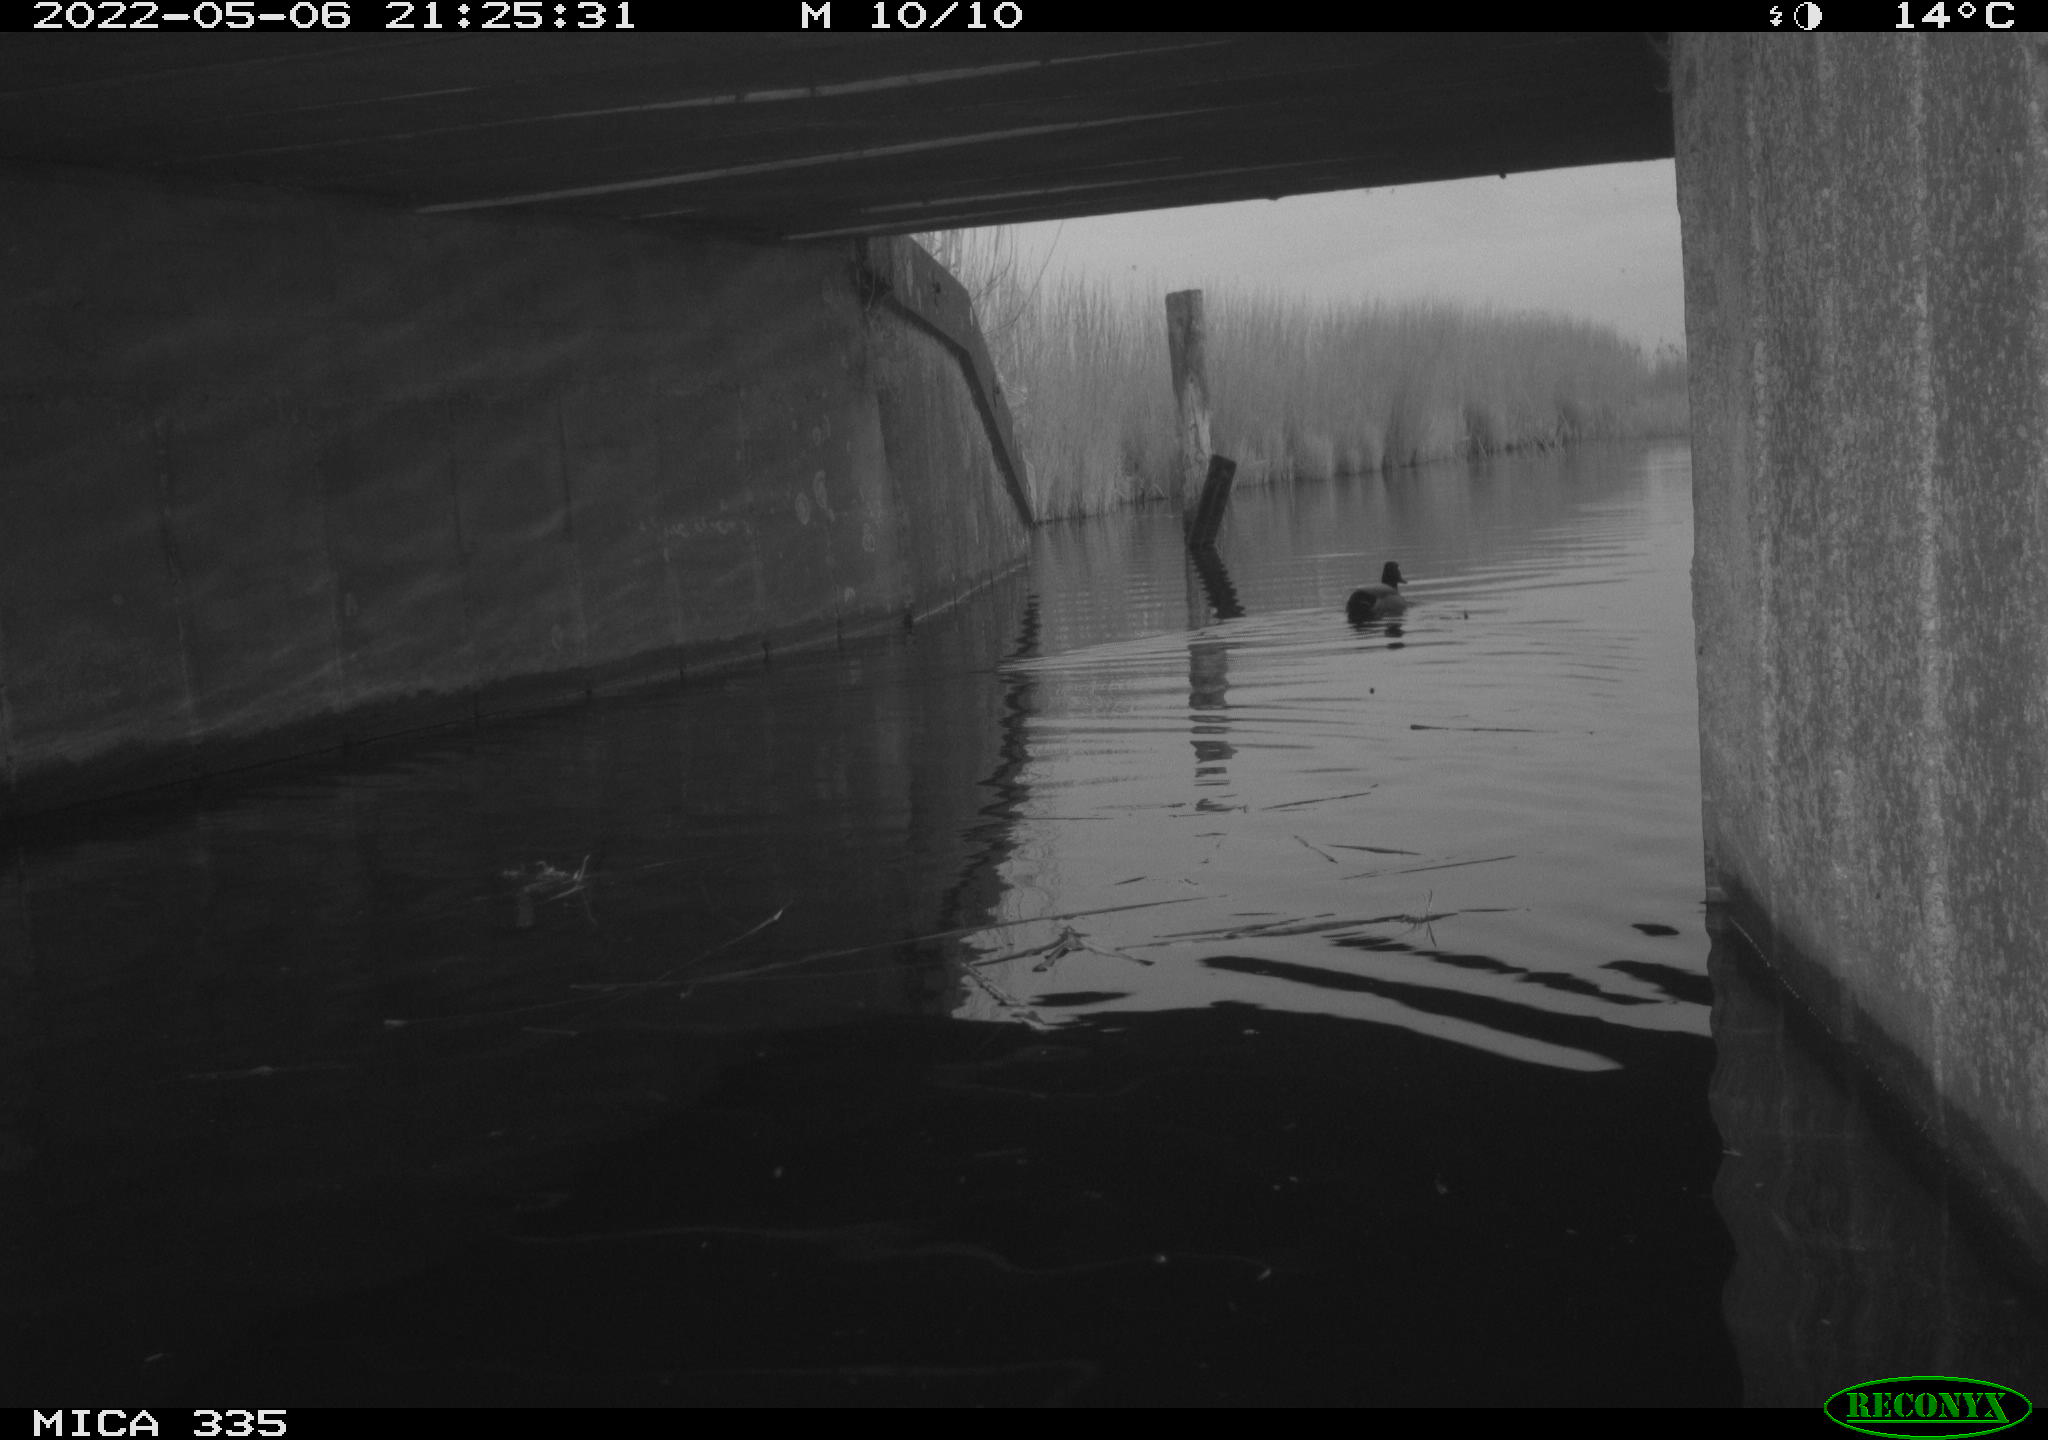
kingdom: Animalia
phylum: Chordata
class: Aves
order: Anseriformes
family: Anatidae
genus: Anas
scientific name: Anas platyrhynchos
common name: Mallard
